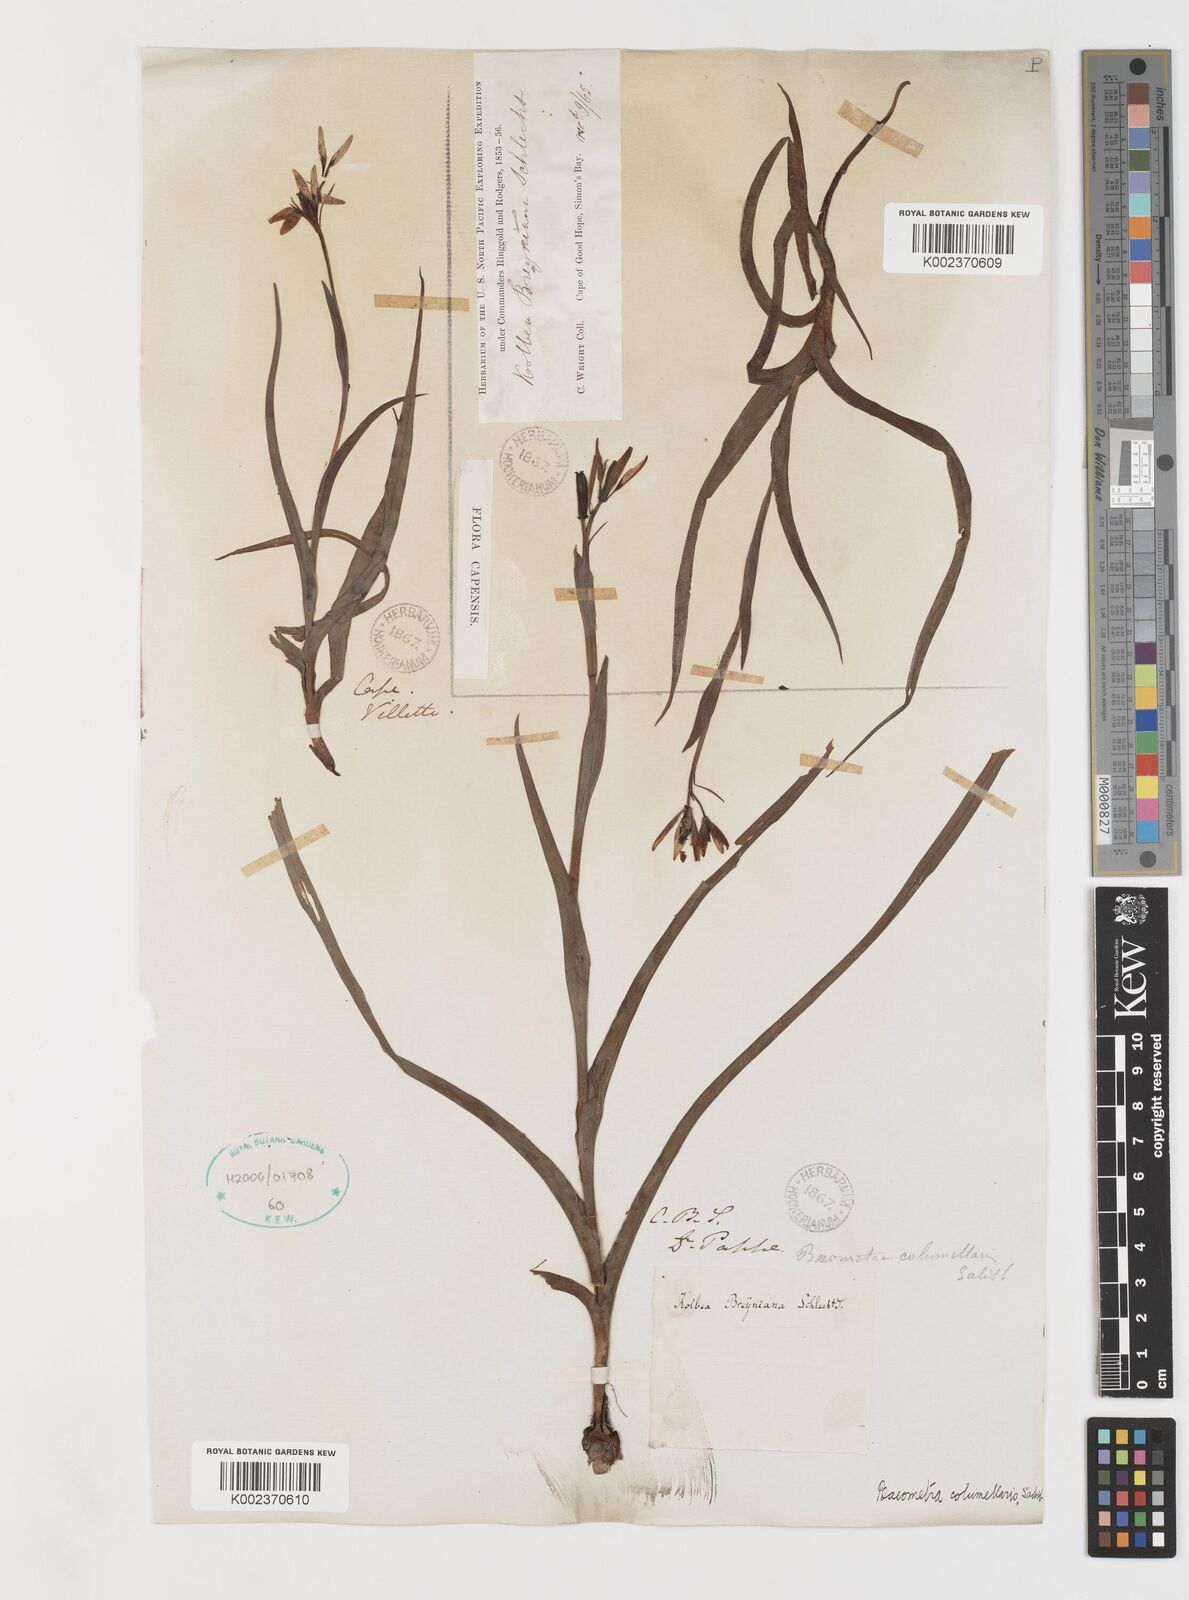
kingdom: Plantae
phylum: Tracheophyta
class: Liliopsida
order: Liliales
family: Colchicaceae
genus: Baeometra
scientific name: Baeometra uniflora
